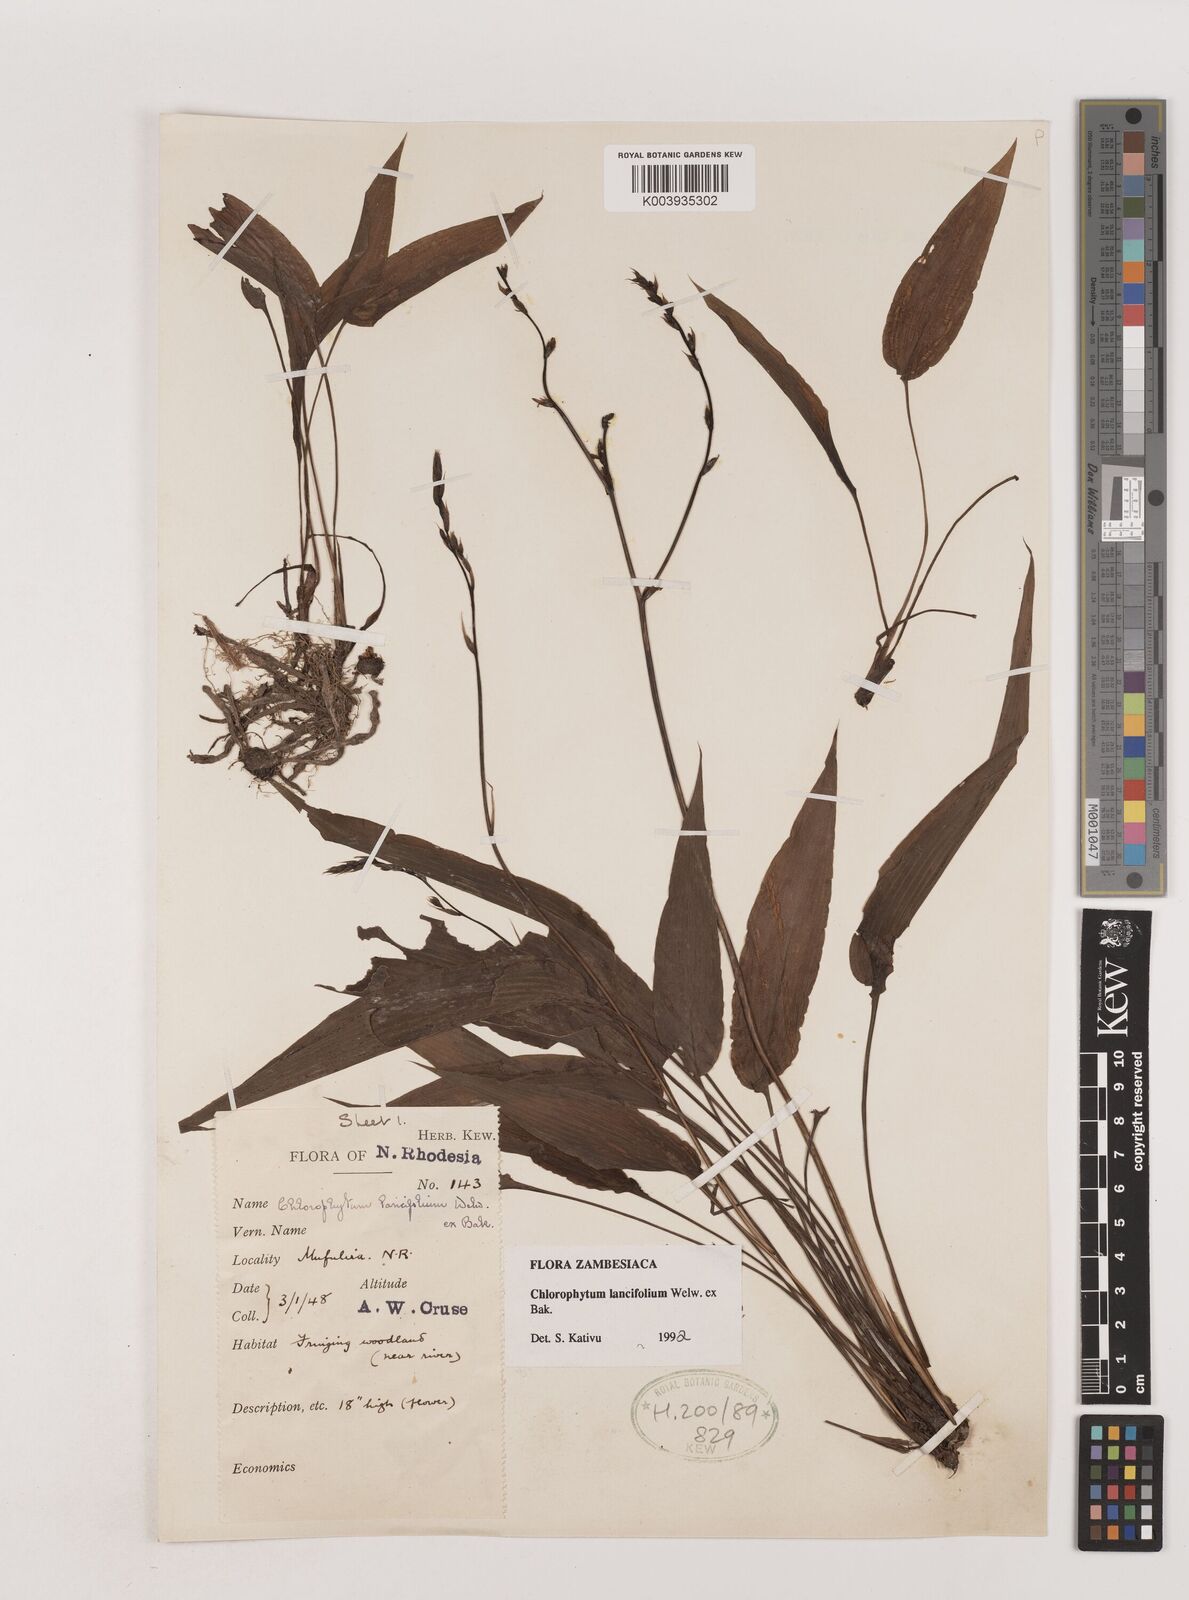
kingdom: Plantae
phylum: Tracheophyta
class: Liliopsida
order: Asparagales
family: Asparagaceae
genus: Chlorophytum
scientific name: Chlorophytum lancifolium
